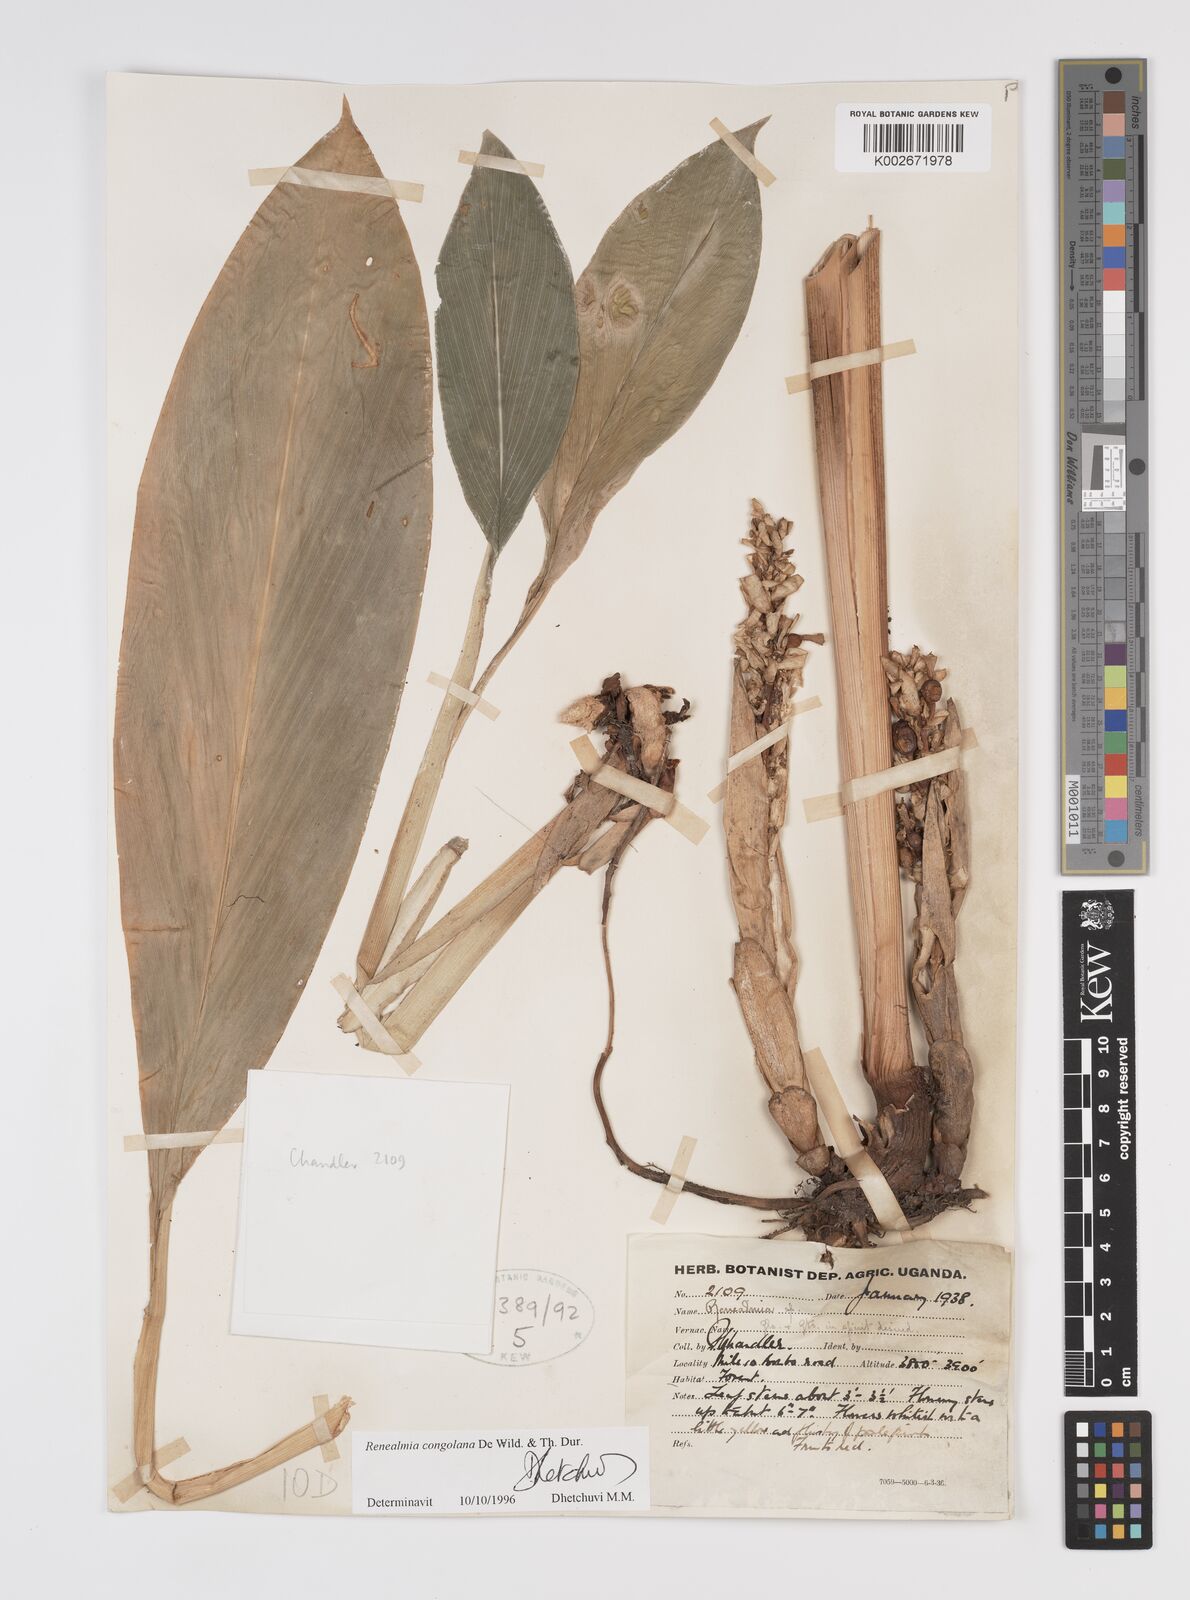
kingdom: Plantae
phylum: Tracheophyta
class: Liliopsida
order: Zingiberales
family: Zingiberaceae
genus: Renealmia
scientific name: Renealmia congolana
